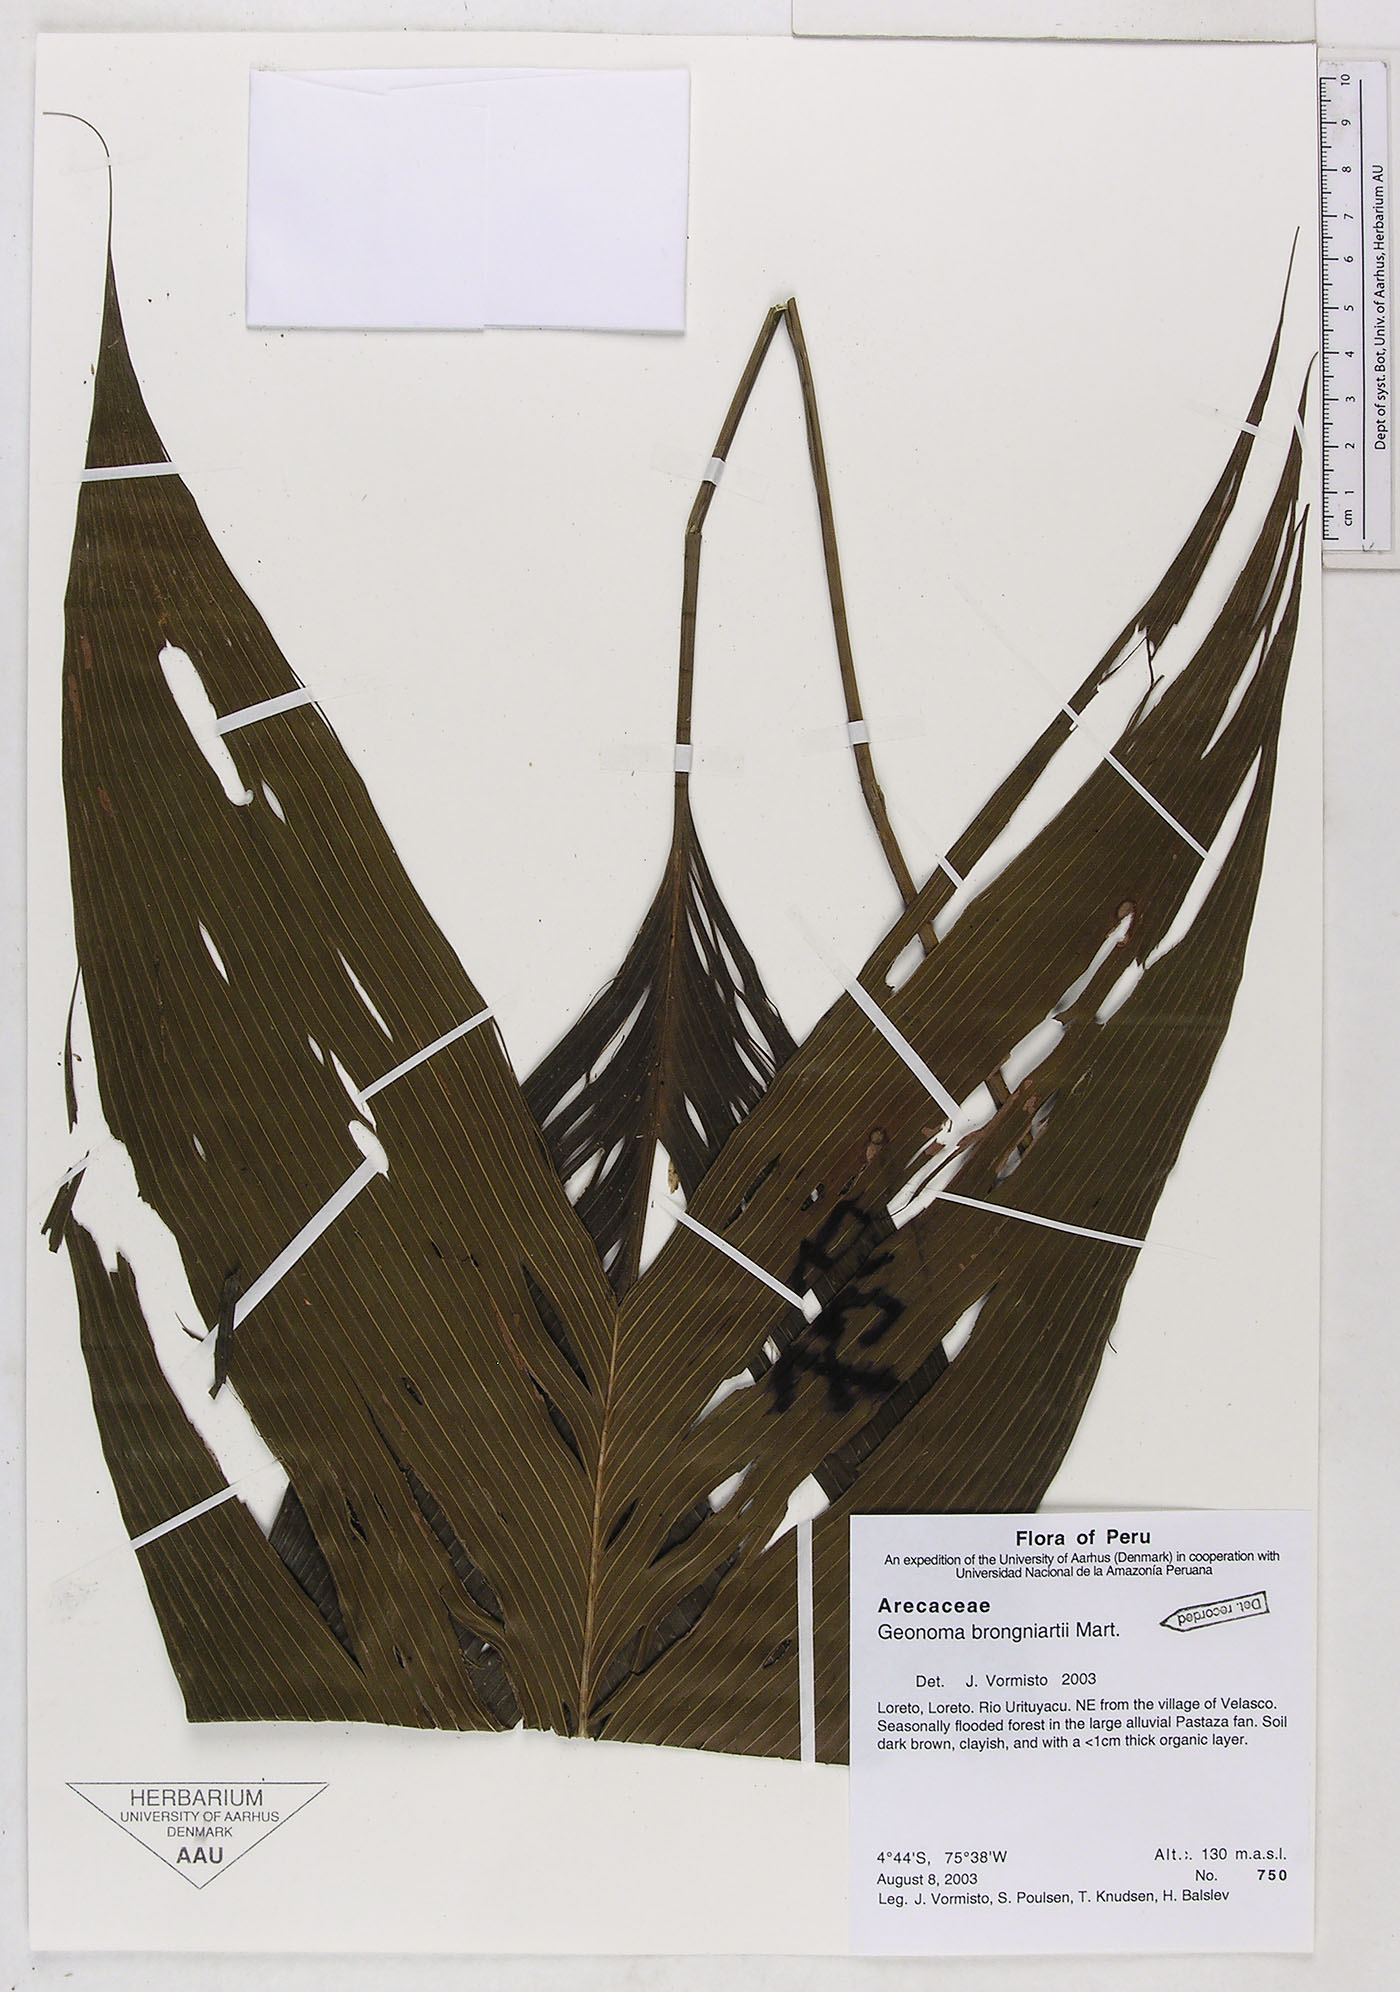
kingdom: Plantae
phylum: Tracheophyta
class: Liliopsida
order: Arecales
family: Arecaceae
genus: Geonoma
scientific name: Geonoma brongniartii
